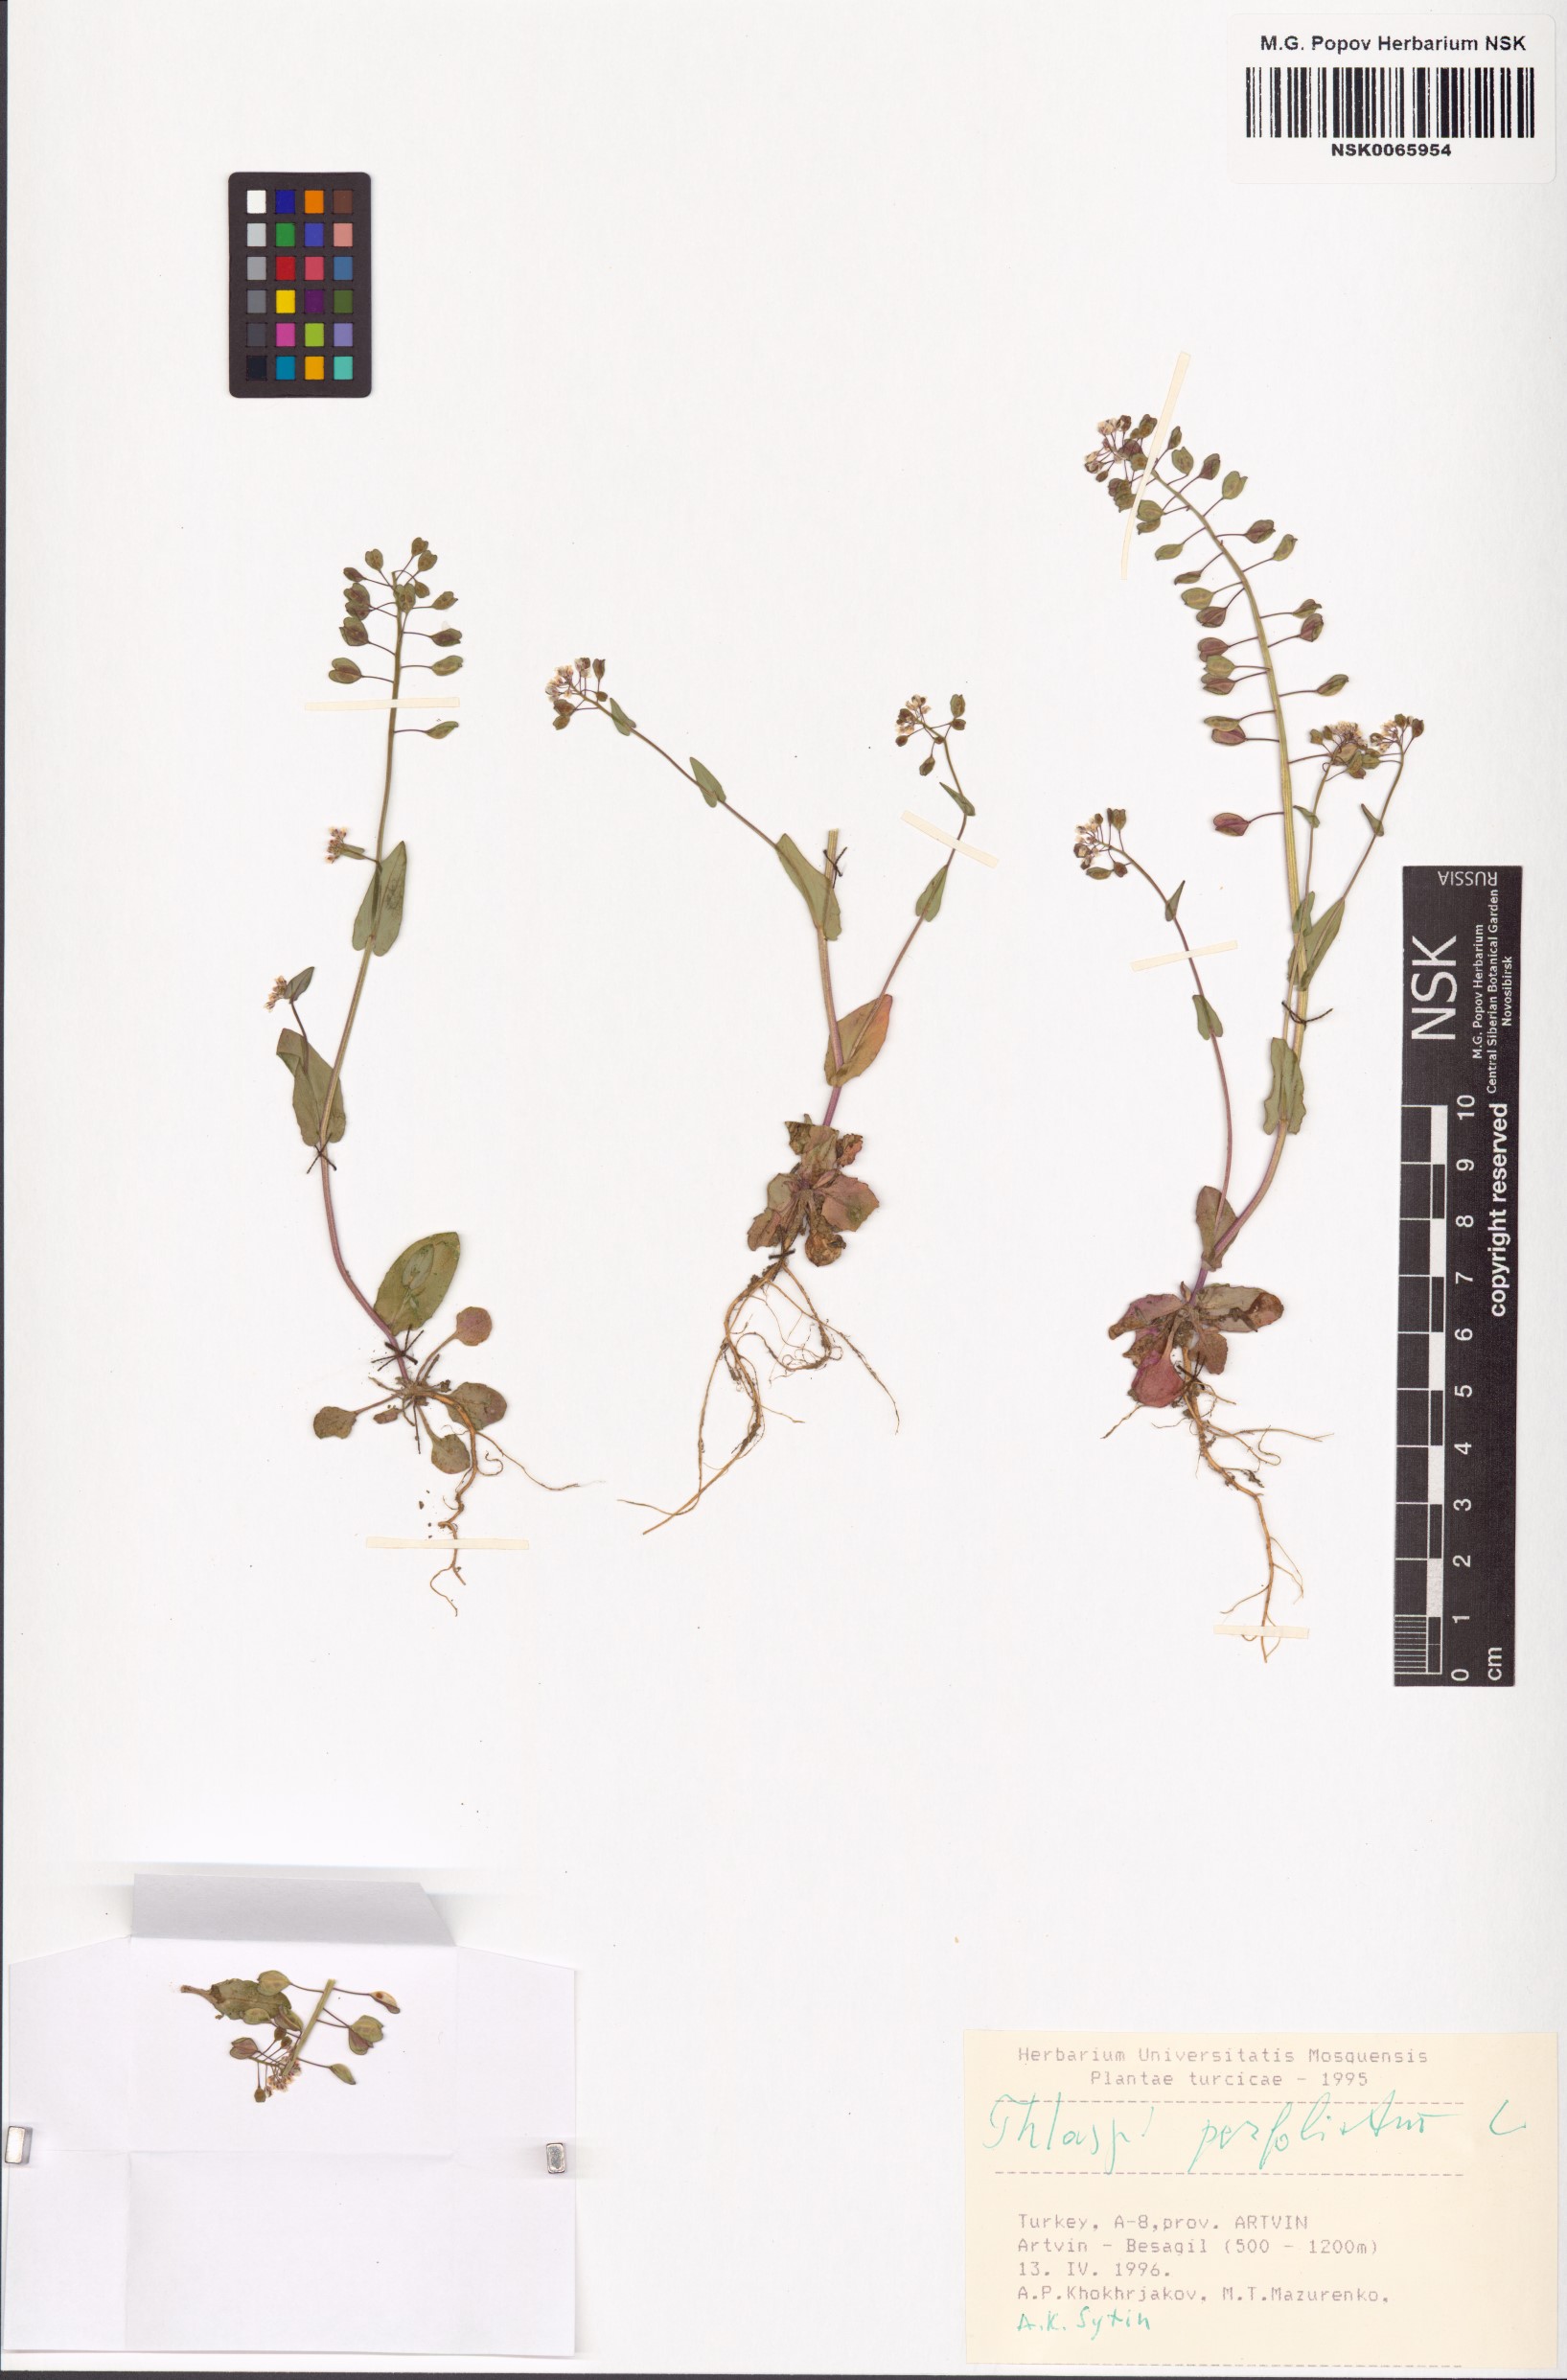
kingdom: Plantae
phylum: Tracheophyta
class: Magnoliopsida
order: Brassicales
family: Brassicaceae
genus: Noccaea
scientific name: Noccaea perfoliata
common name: Perfoliate pennycress
